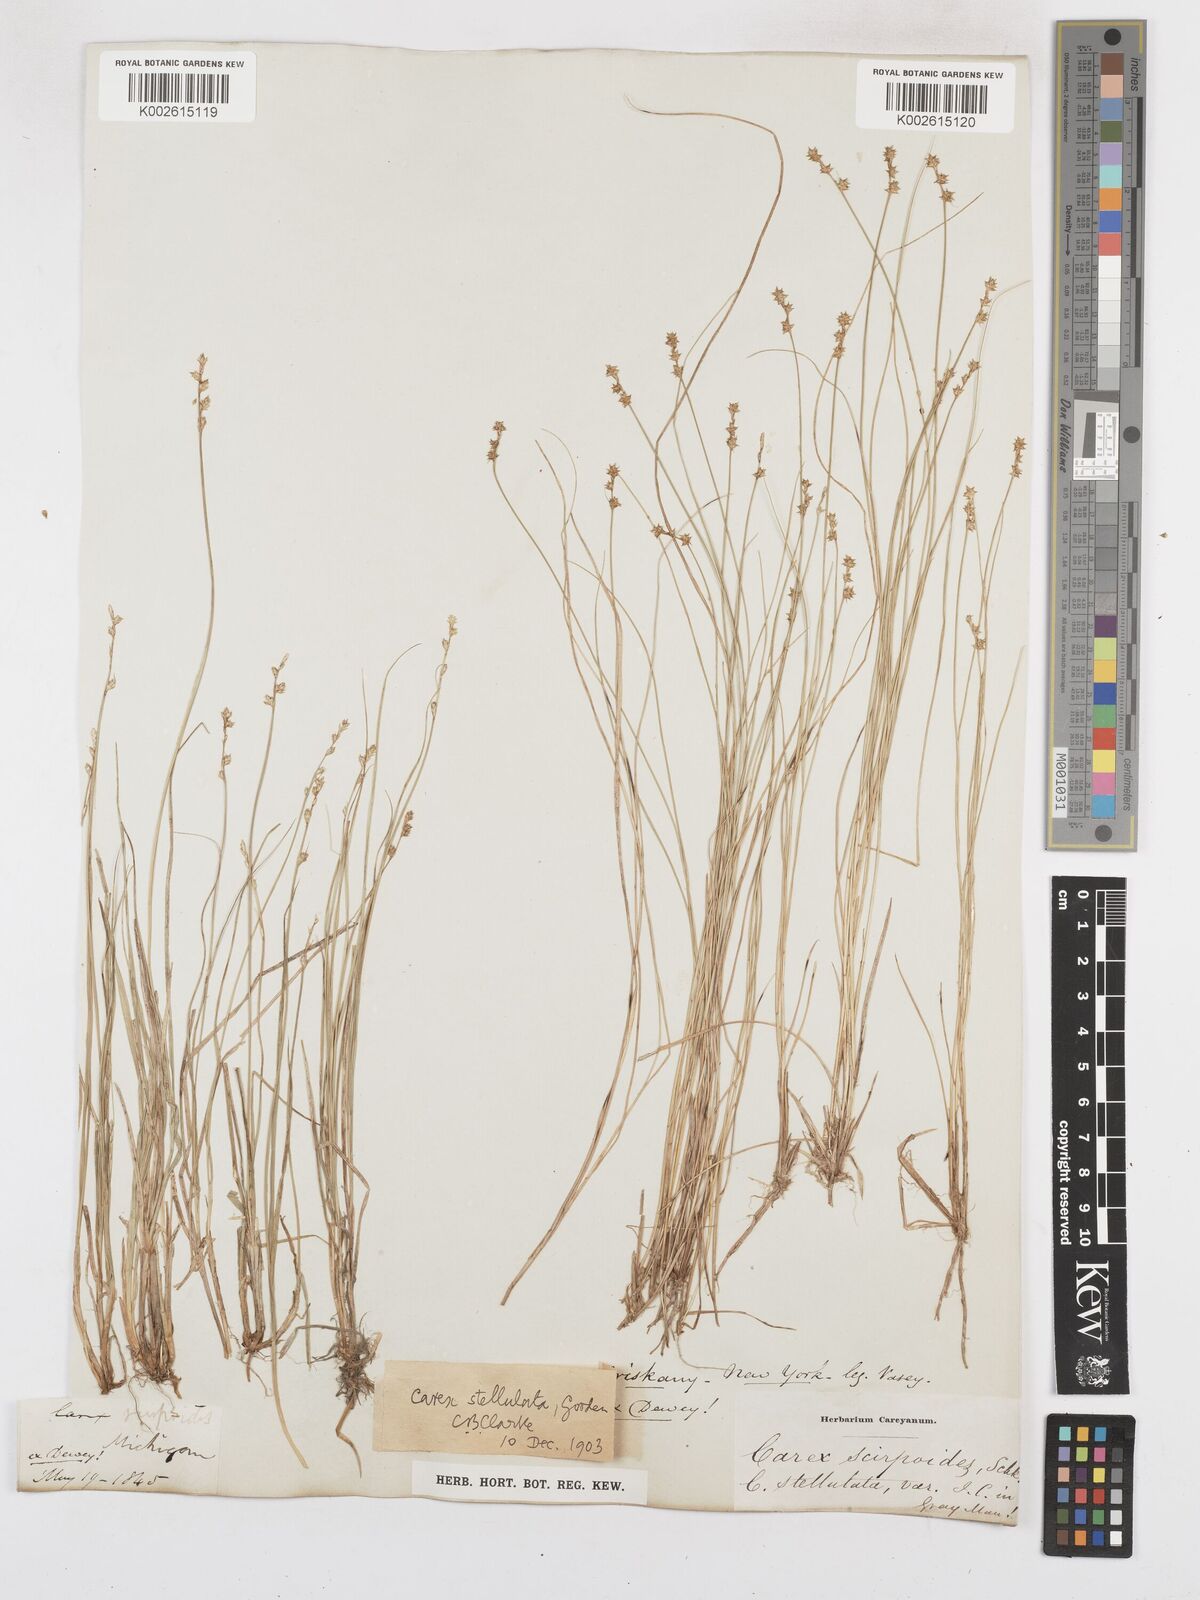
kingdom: Plantae
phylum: Tracheophyta
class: Liliopsida
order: Poales
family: Cyperaceae
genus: Carex
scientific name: Carex echinata
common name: Star sedge
